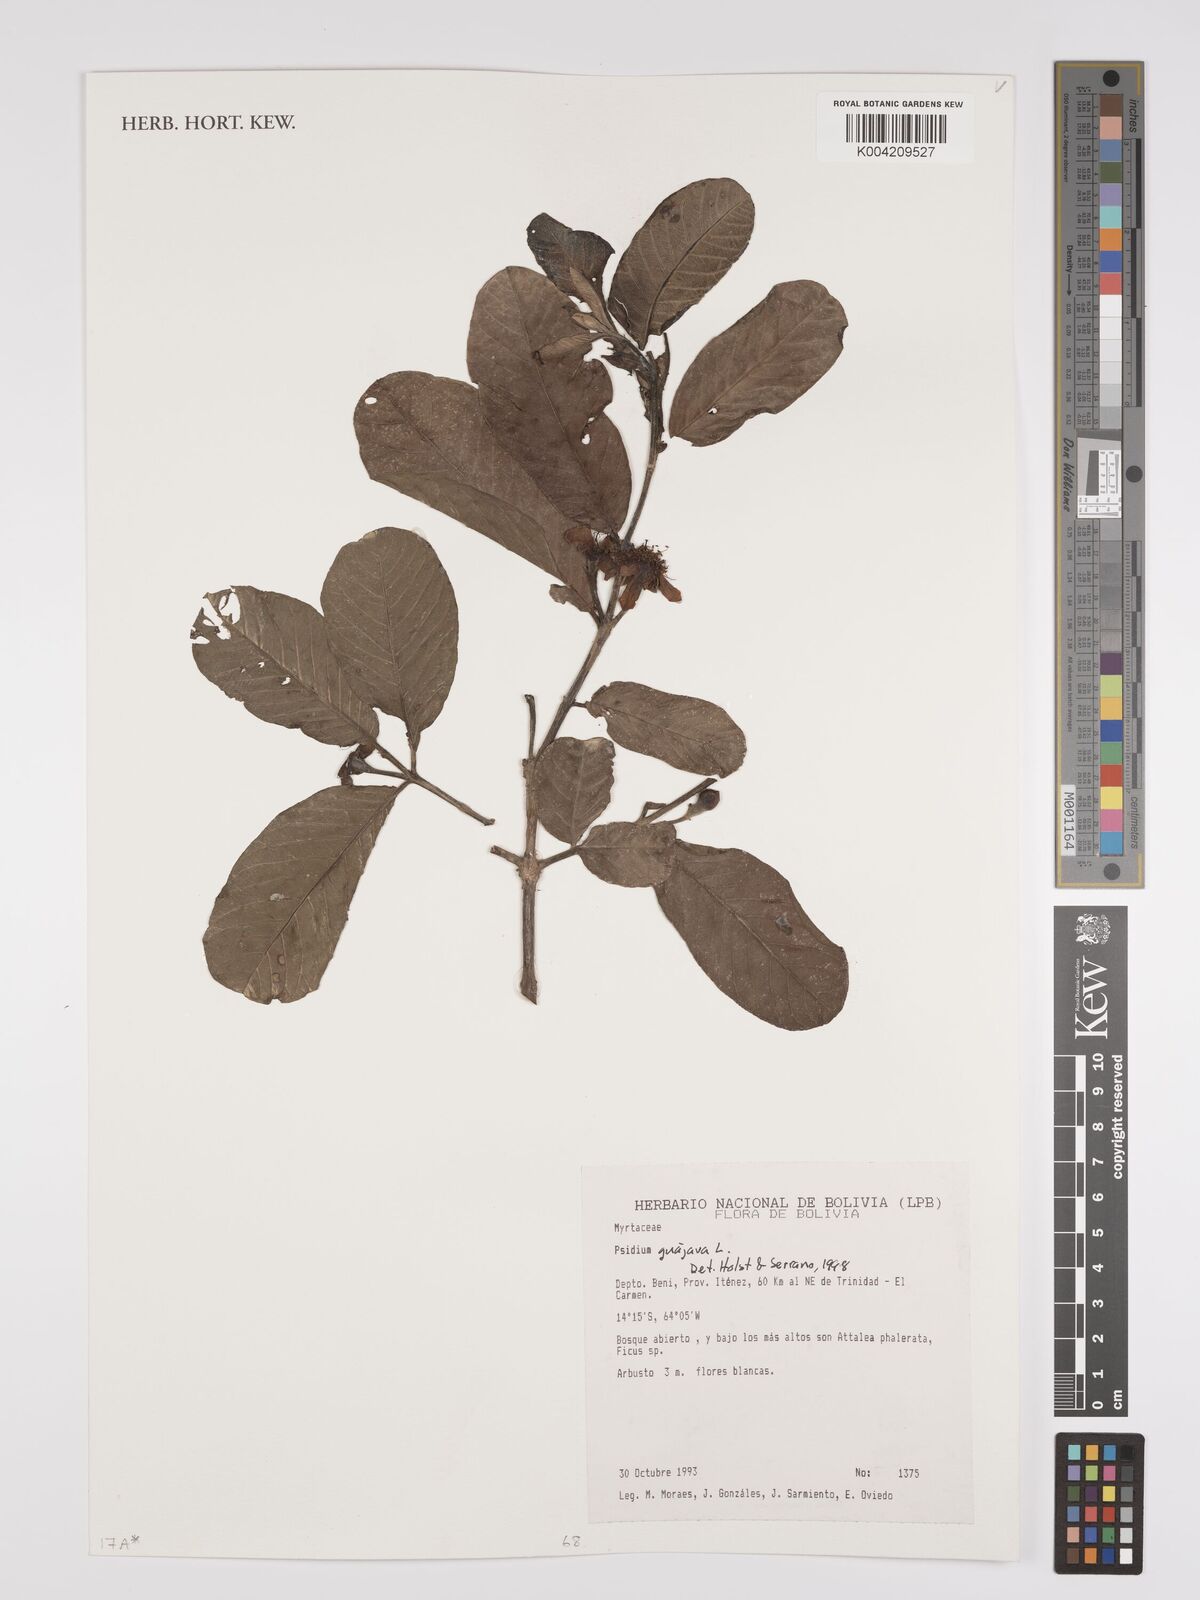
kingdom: Plantae
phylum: Tracheophyta
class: Magnoliopsida
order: Myrtales
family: Myrtaceae
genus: Psidium
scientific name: Psidium guajava
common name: Guava
